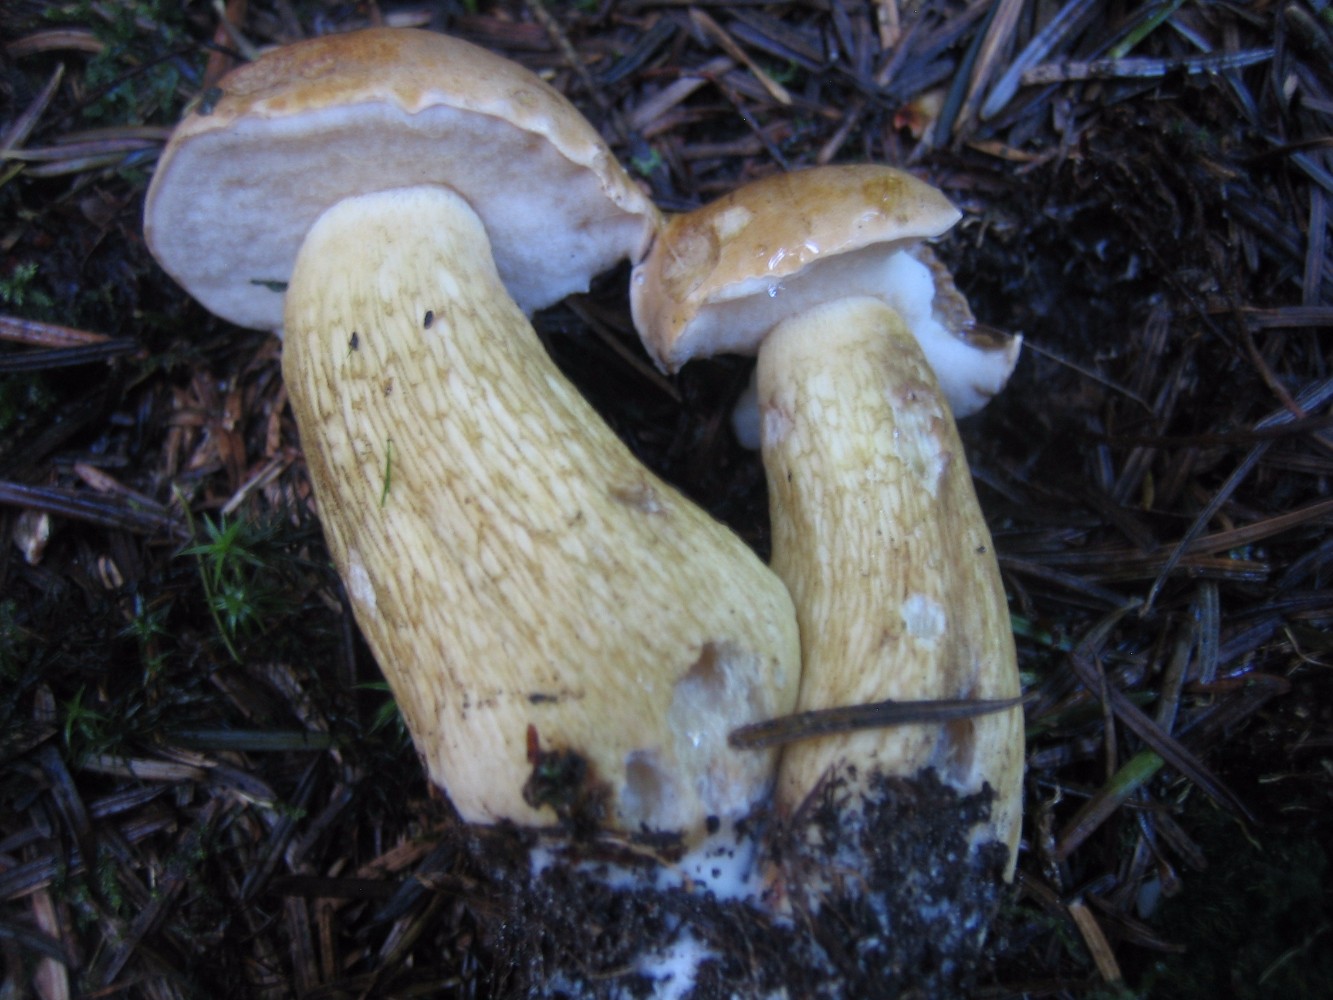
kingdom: Fungi
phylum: Basidiomycota
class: Agaricomycetes
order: Boletales
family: Boletaceae
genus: Tylopilus
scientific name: Tylopilus felleus
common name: galderørhat
